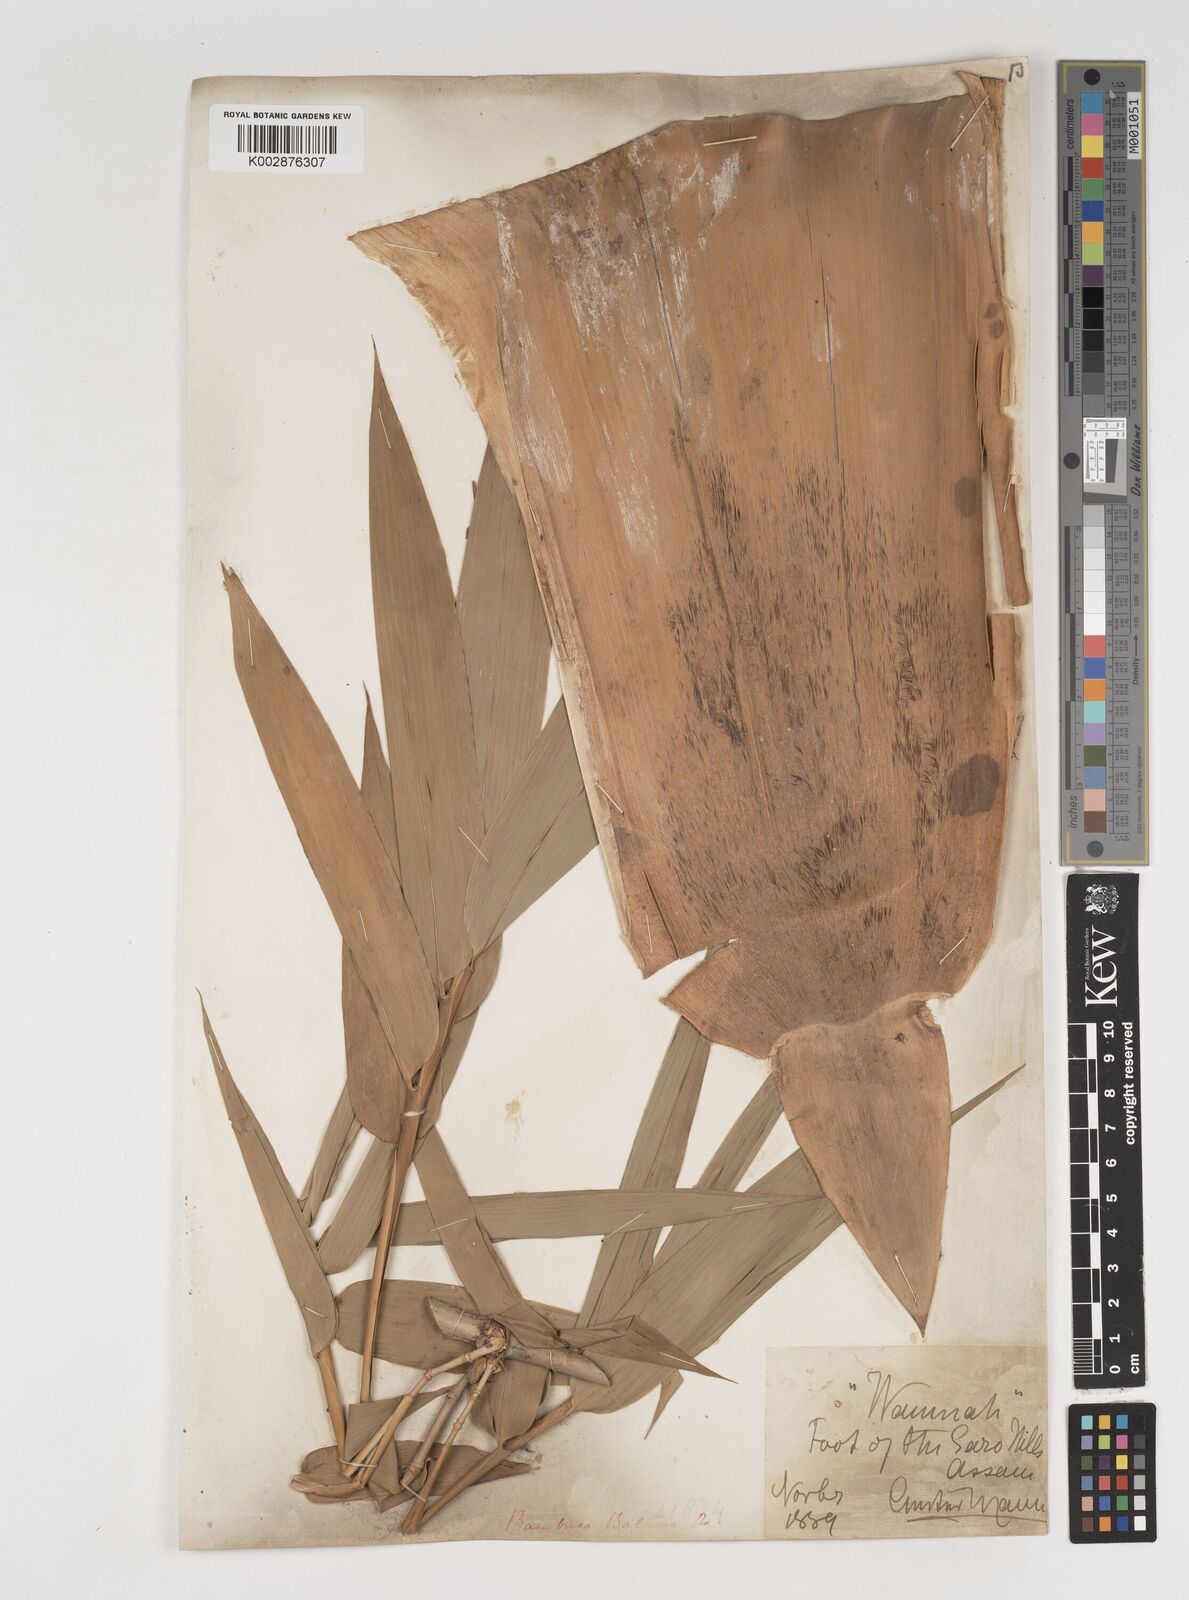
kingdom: Plantae
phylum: Tracheophyta
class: Liliopsida
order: Poales
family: Poaceae
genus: Bambusa
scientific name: Bambusa balcooa
